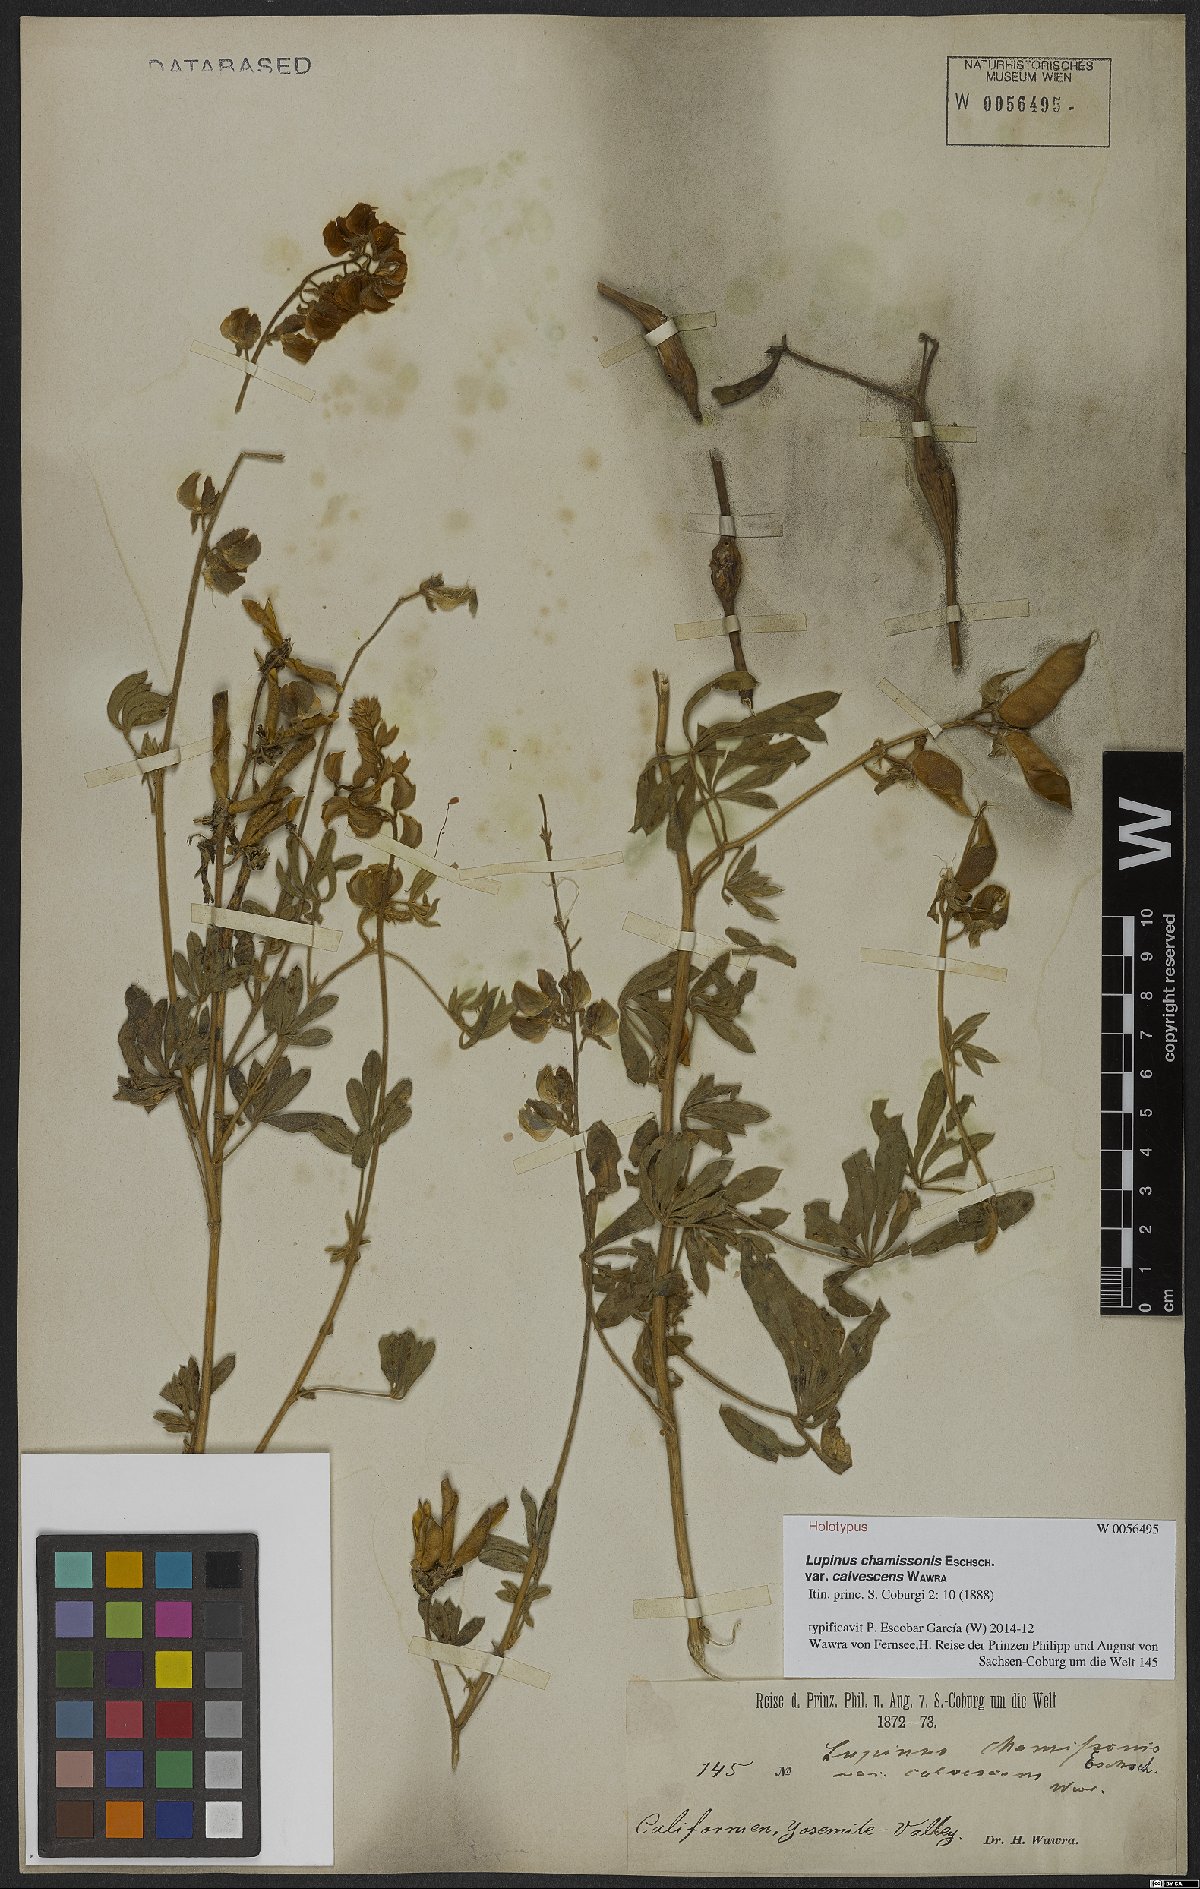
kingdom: Plantae
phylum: Tracheophyta
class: Magnoliopsida
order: Fabales
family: Fabaceae
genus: Lupinus
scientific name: Lupinus chamissonis
